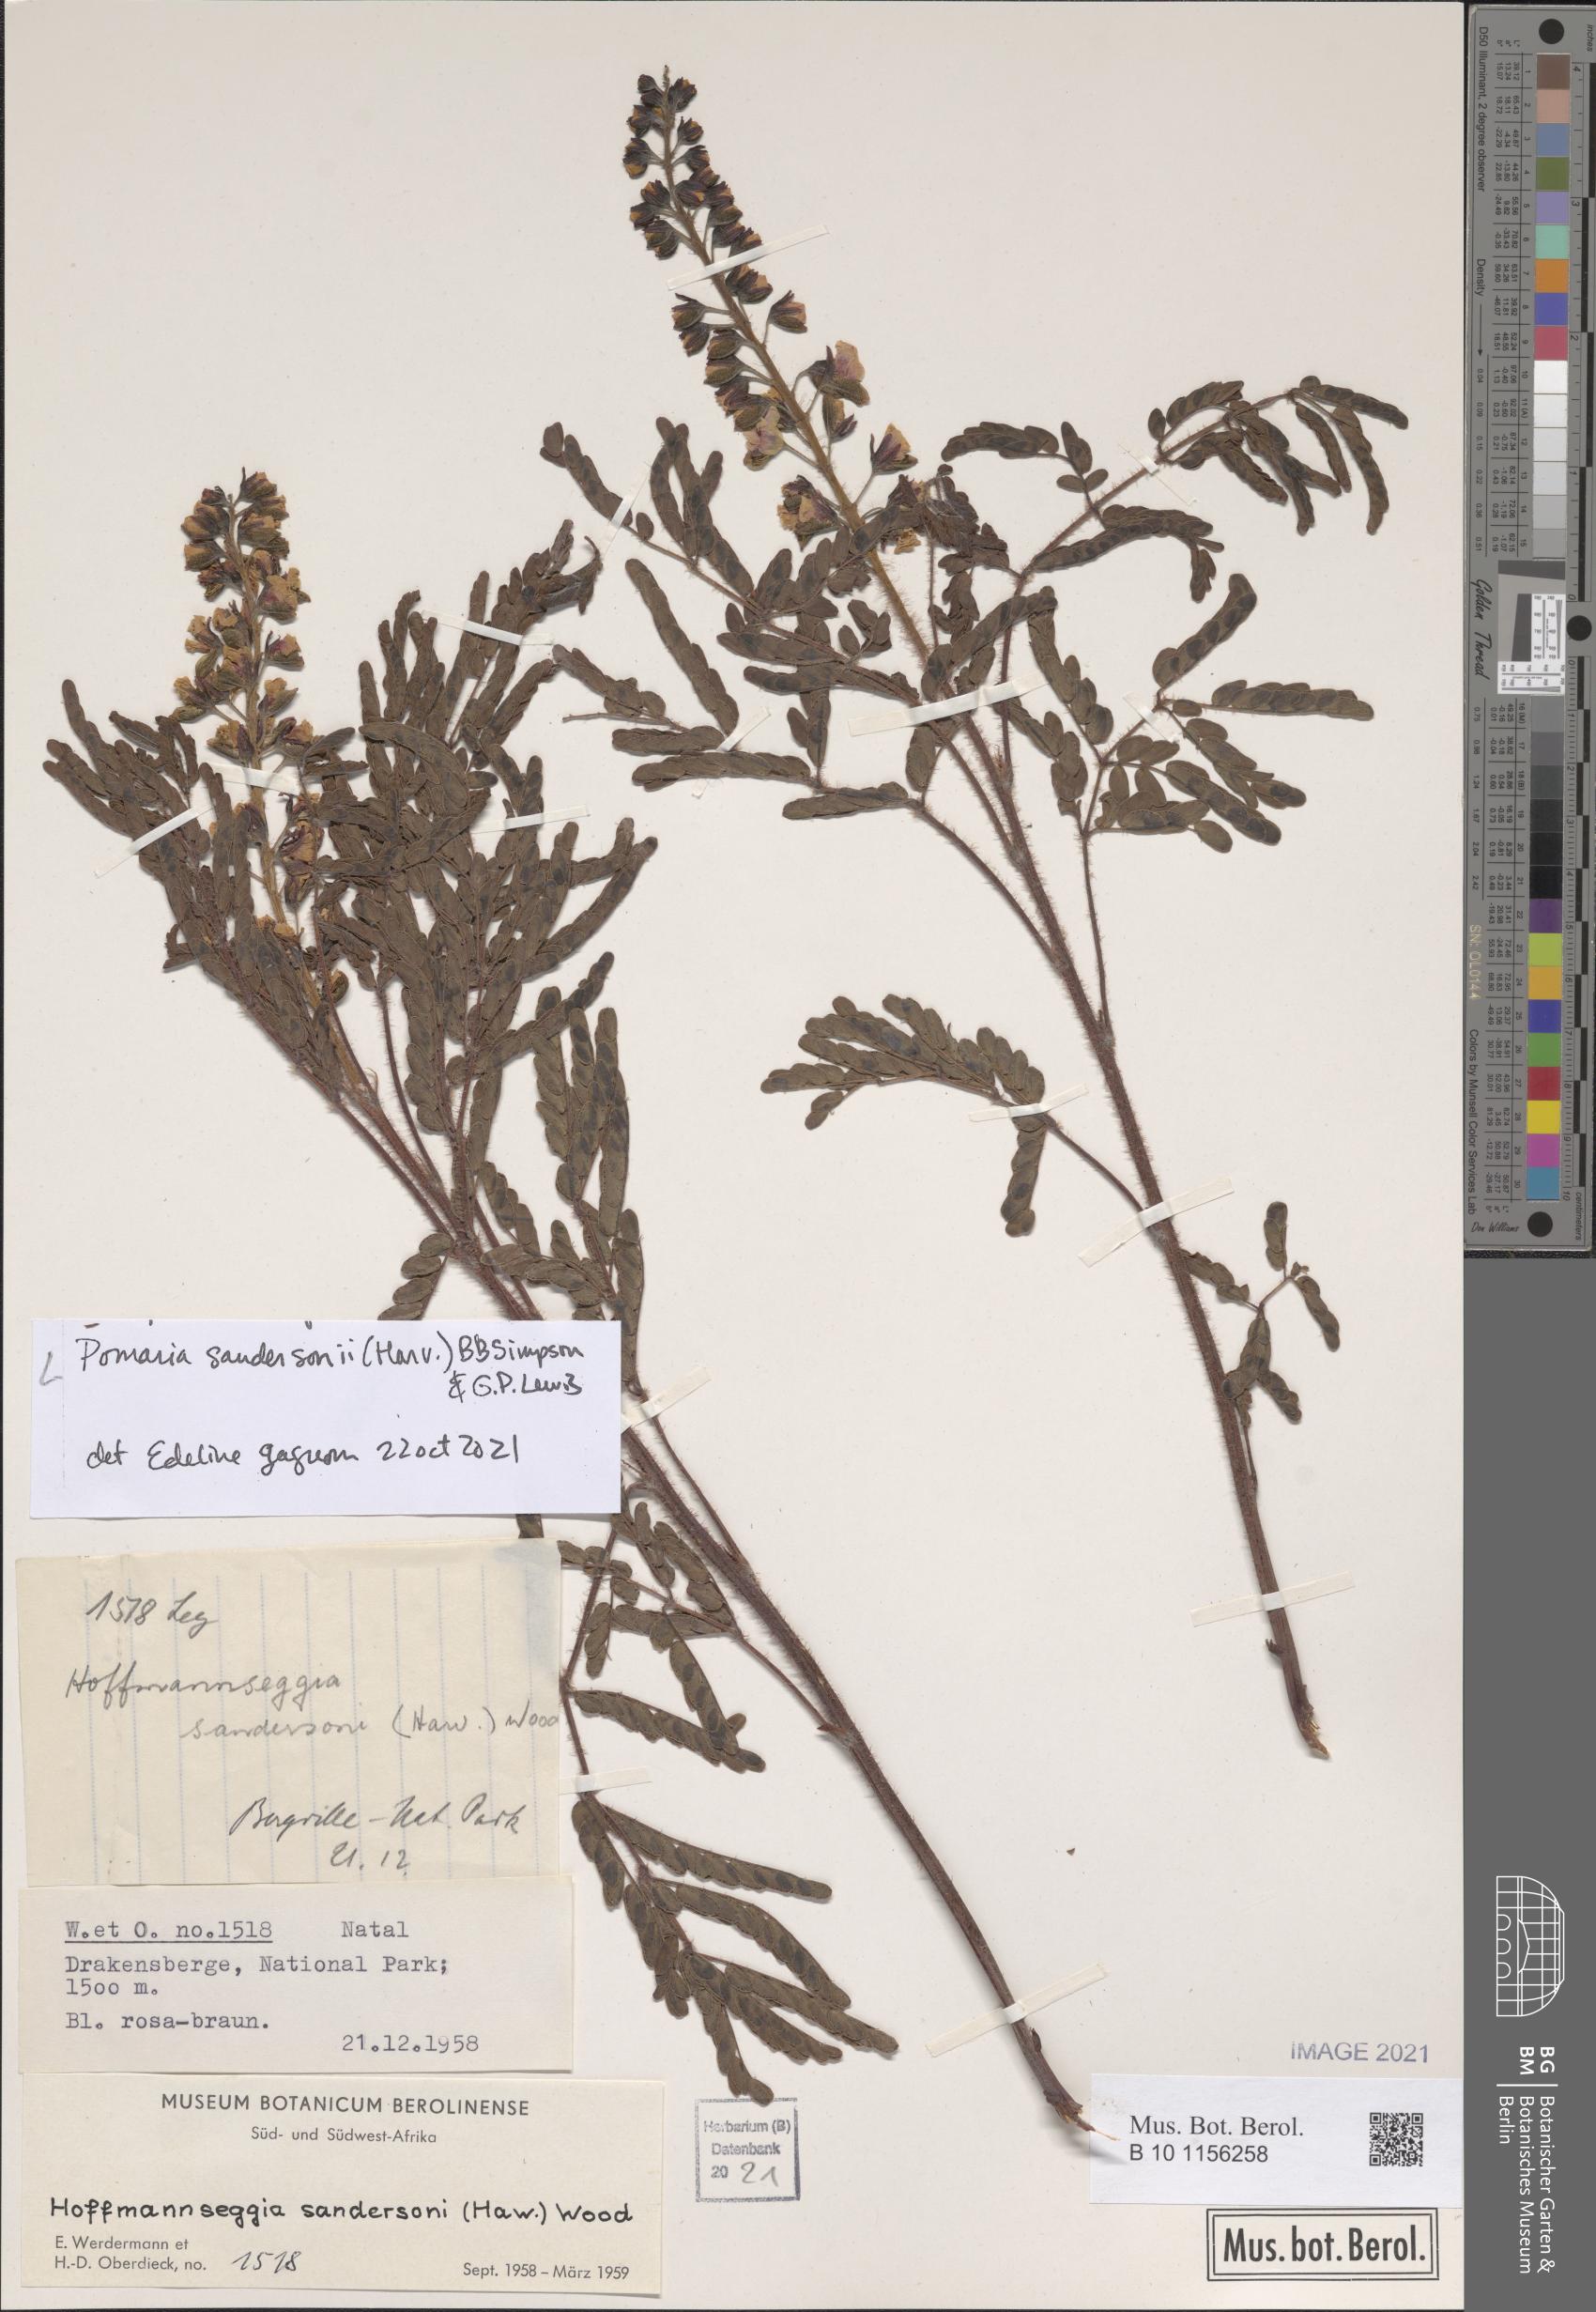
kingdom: Plantae
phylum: Tracheophyta
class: Magnoliopsida
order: Fabales
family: Fabaceae
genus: Pomaria
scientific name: Pomaria sandersonii
